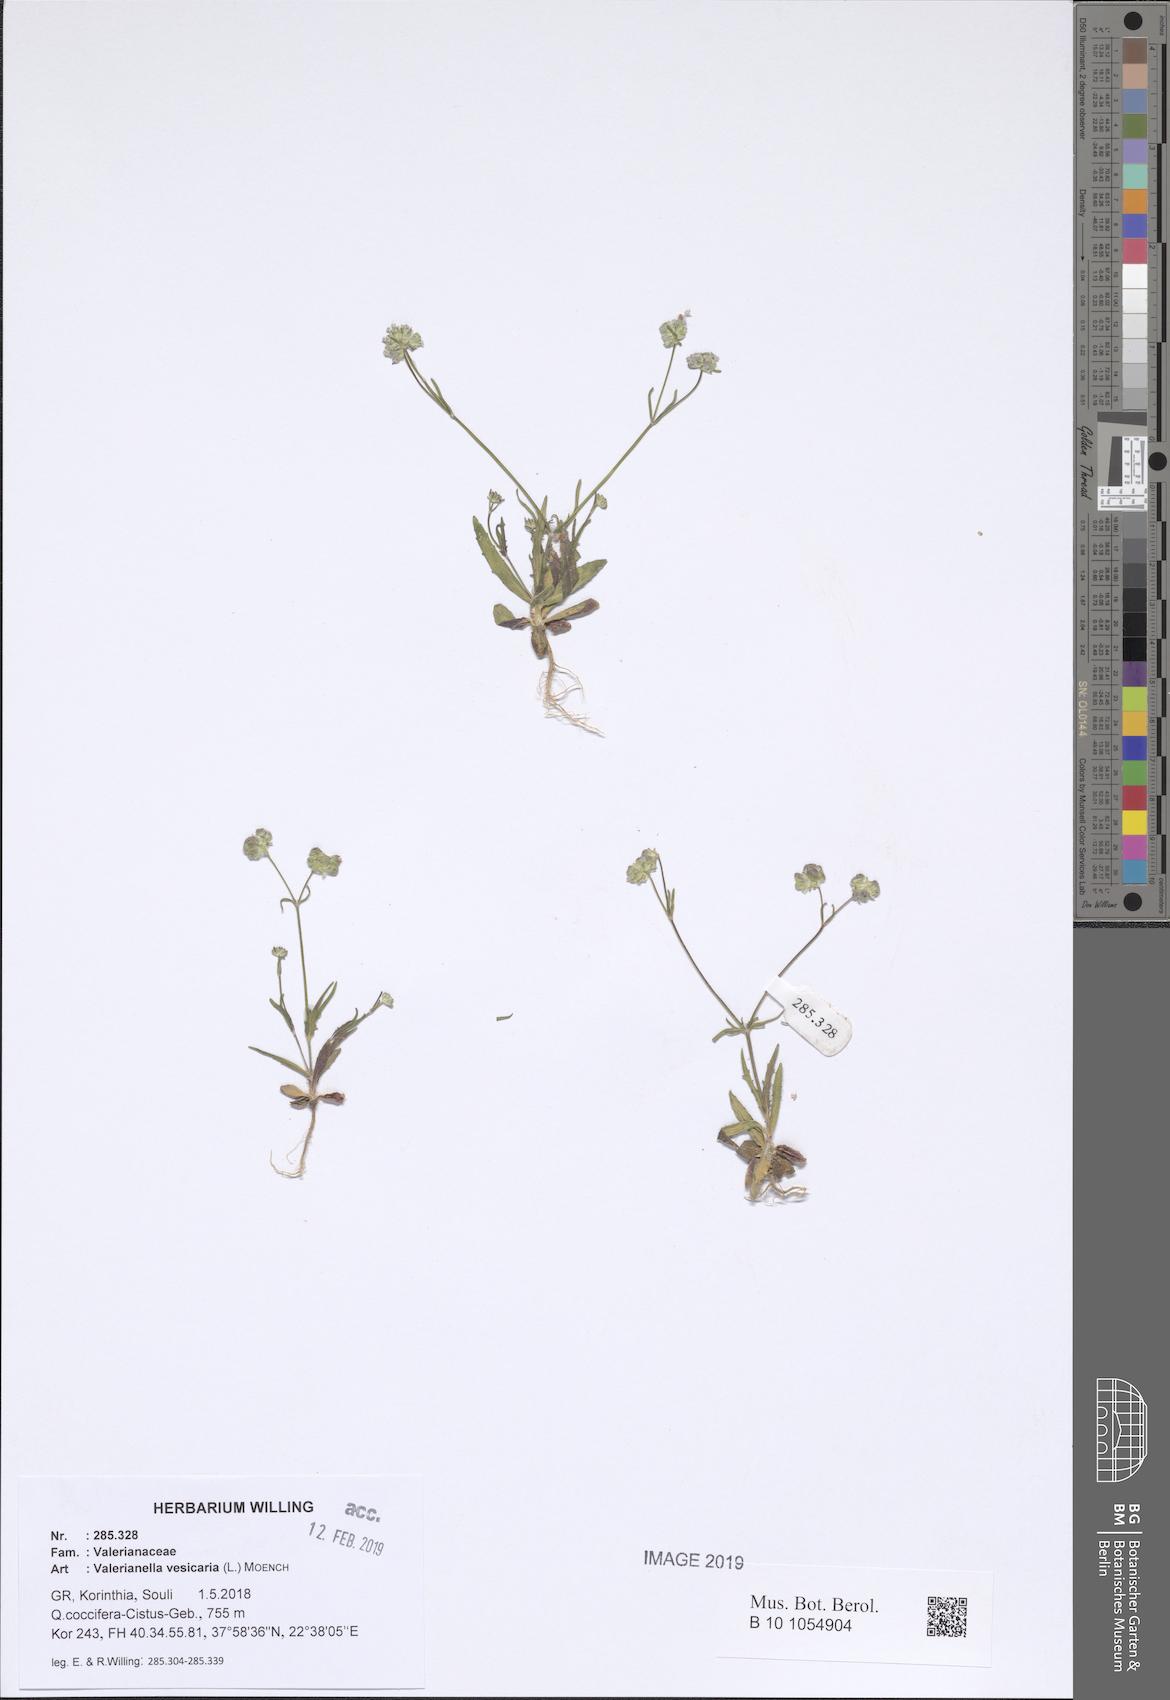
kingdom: Plantae
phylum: Tracheophyta
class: Magnoliopsida
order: Dipsacales
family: Caprifoliaceae
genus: Valerianella
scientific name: Valerianella vesicaria
